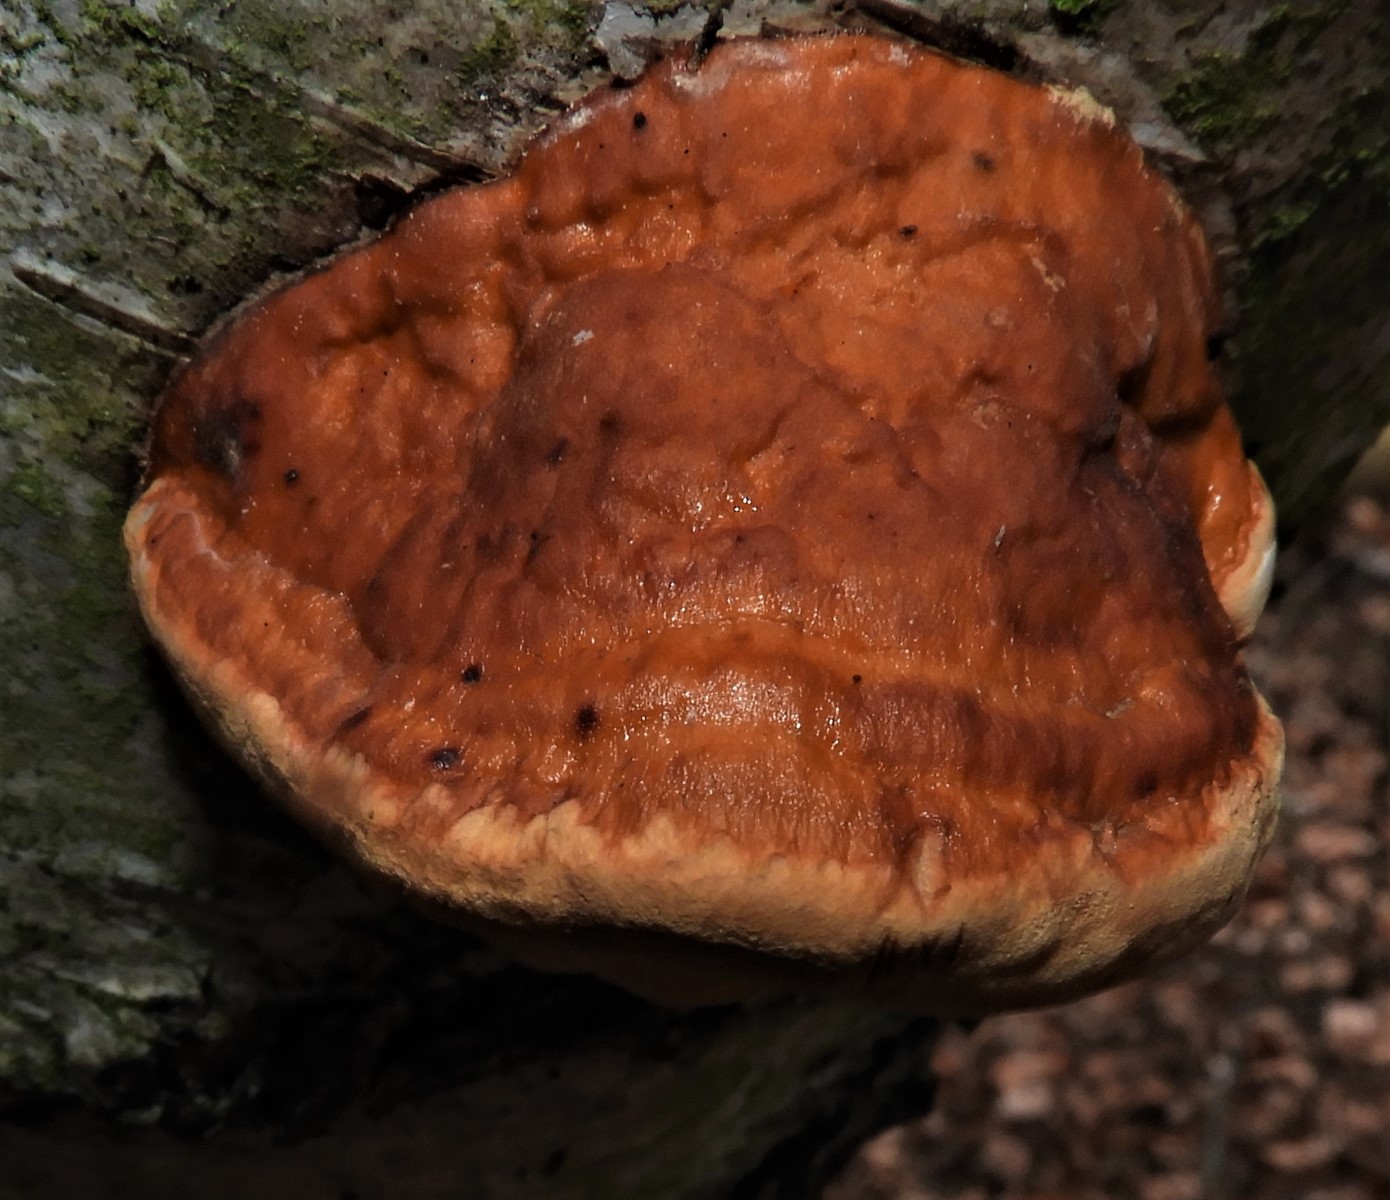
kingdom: Fungi
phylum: Basidiomycota
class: Agaricomycetes
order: Polyporales
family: Fomitopsidaceae
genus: Fomitopsis
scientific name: Fomitopsis pinicola
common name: randbæltet hovporesvamp
